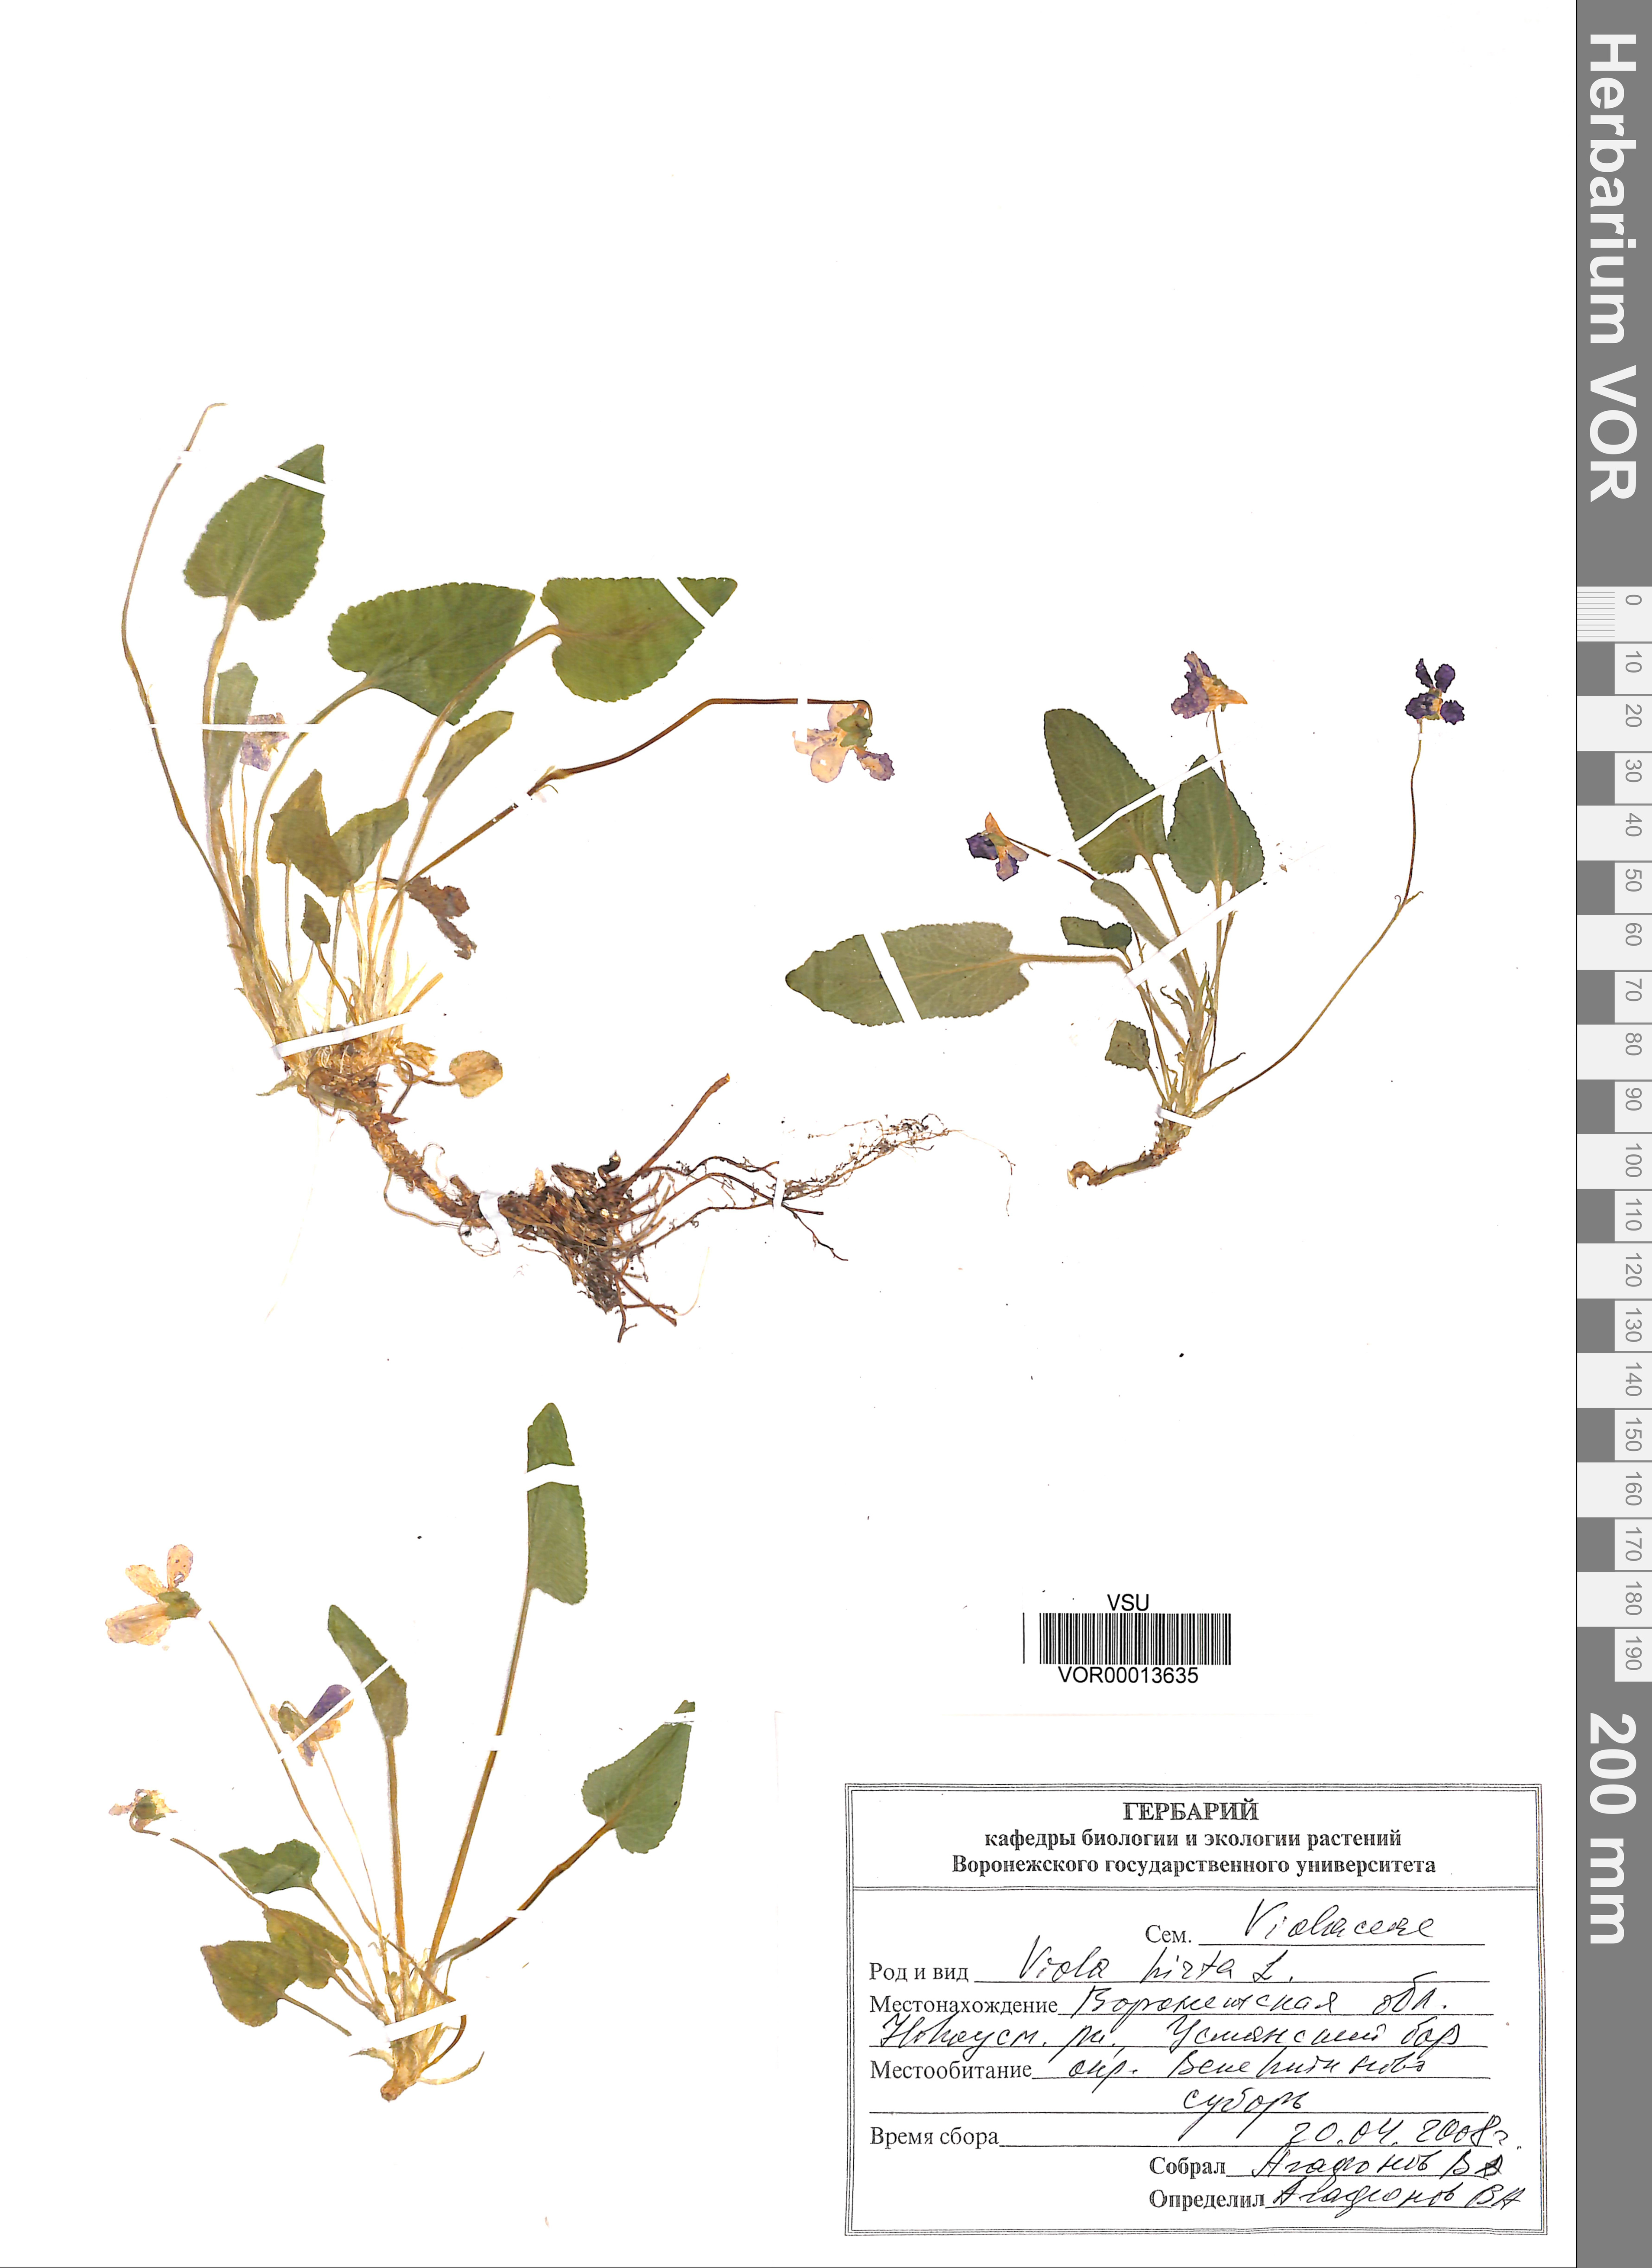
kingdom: Plantae
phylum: Tracheophyta
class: Magnoliopsida
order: Malpighiales
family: Violaceae
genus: Viola
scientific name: Viola hirta
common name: Hairy violet
